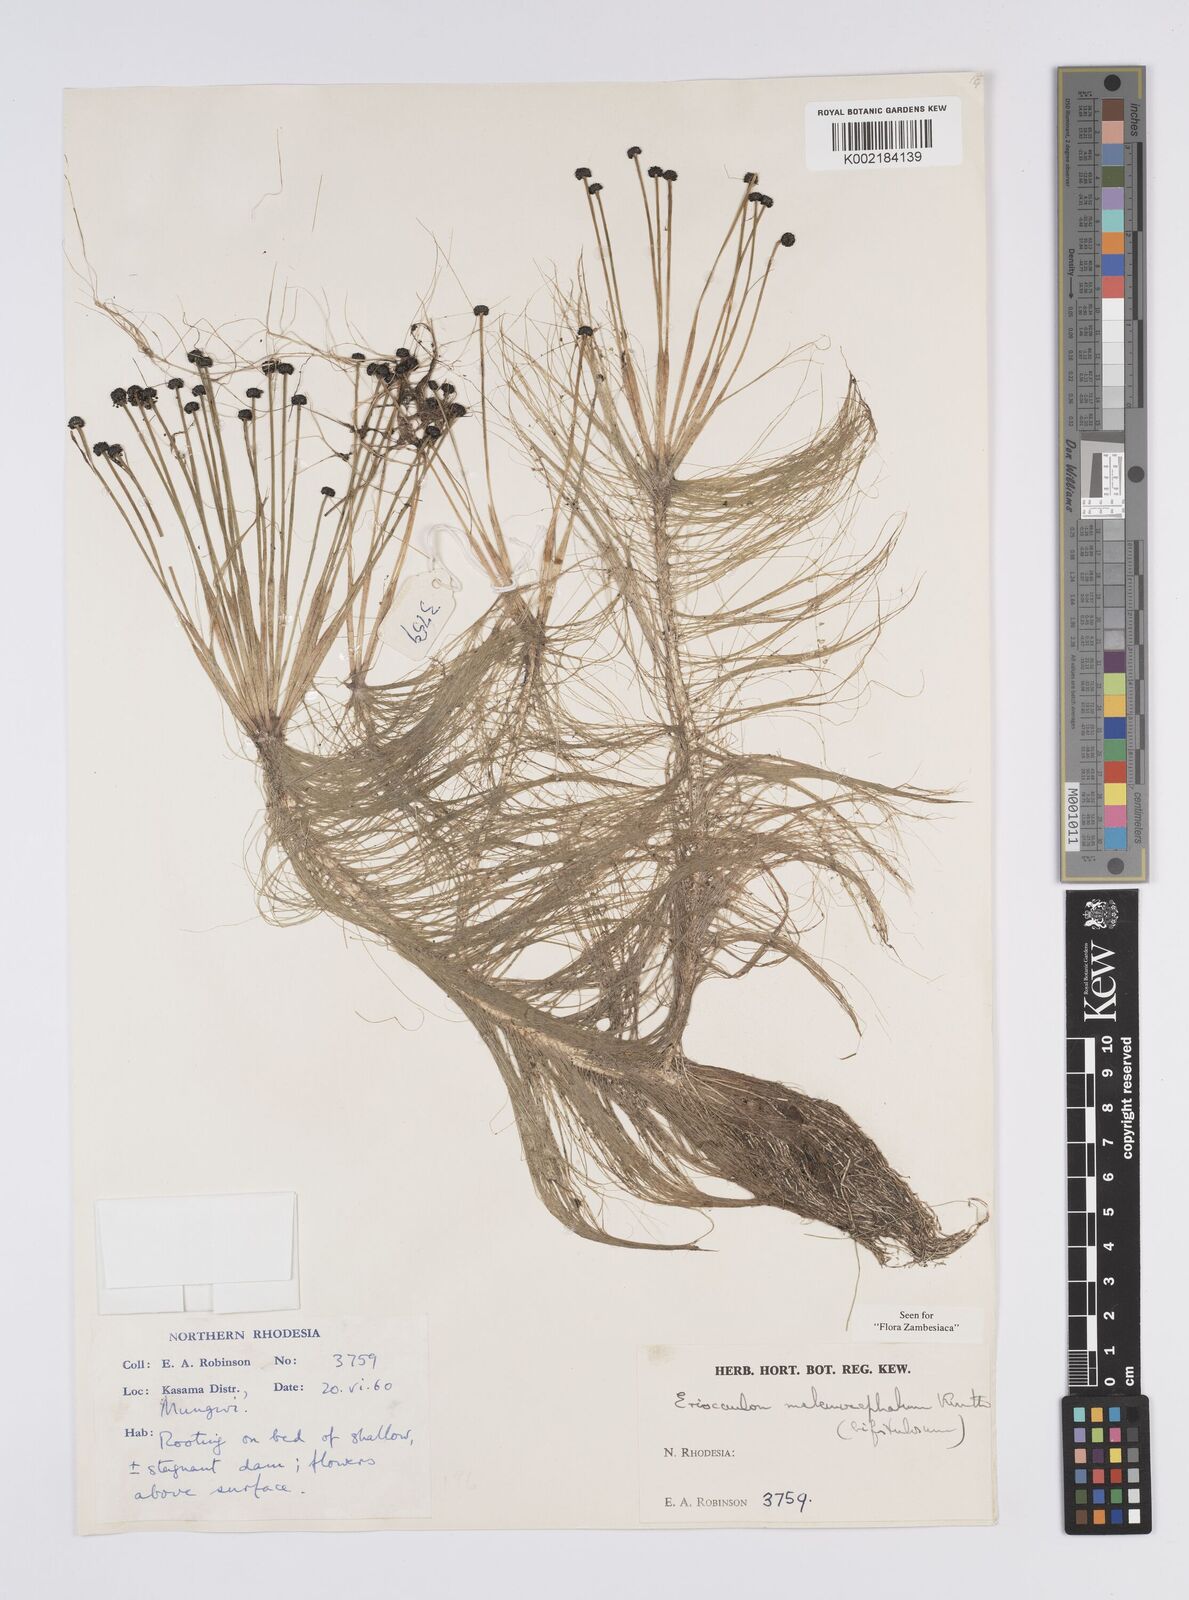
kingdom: Plantae
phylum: Tracheophyta
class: Liliopsida
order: Poales
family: Eriocaulaceae
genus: Eriocaulon
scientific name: Eriocaulon setaceum
